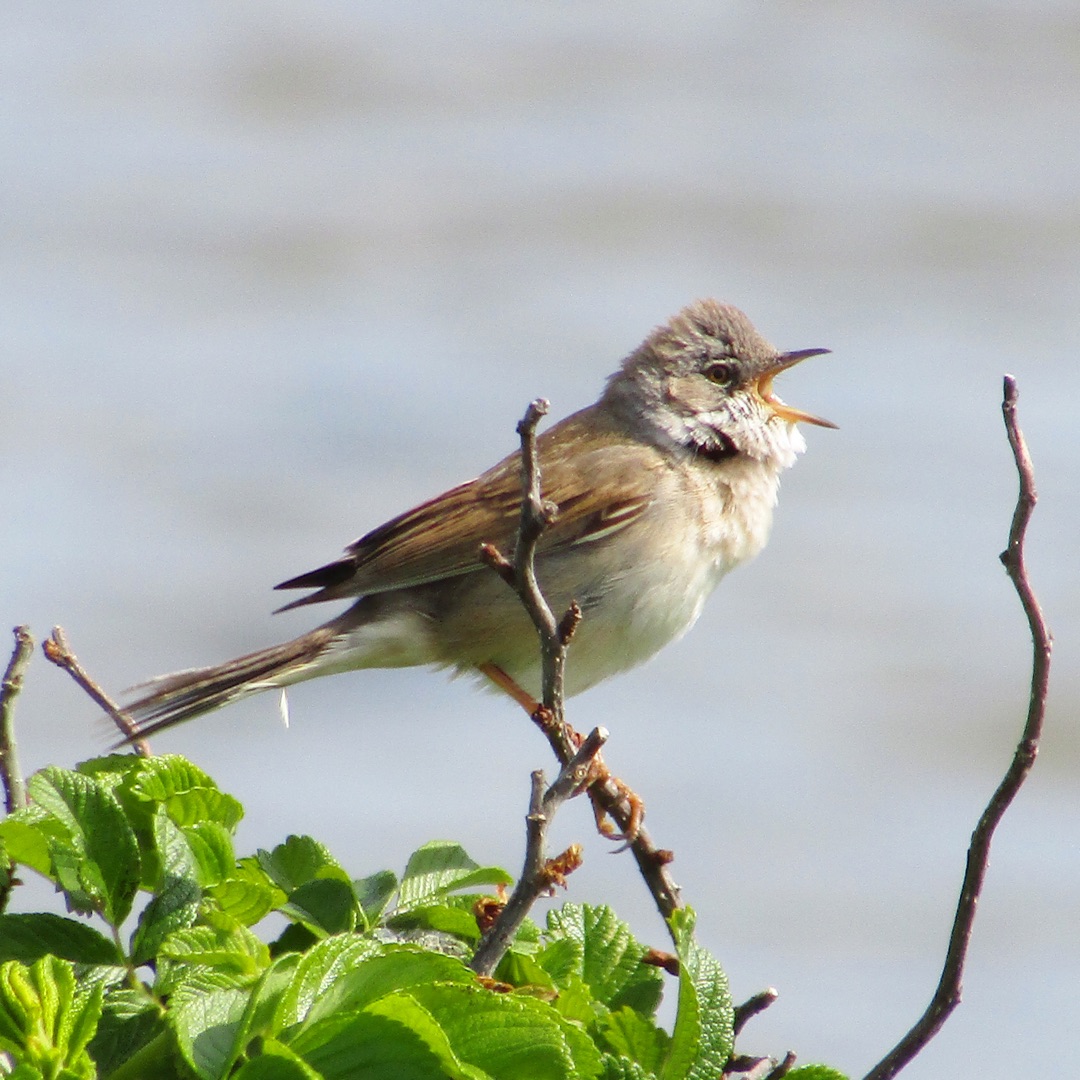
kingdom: Animalia
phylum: Chordata
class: Aves
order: Passeriformes
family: Sylviidae
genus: Sylvia
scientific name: Sylvia communis
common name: Tornsanger
